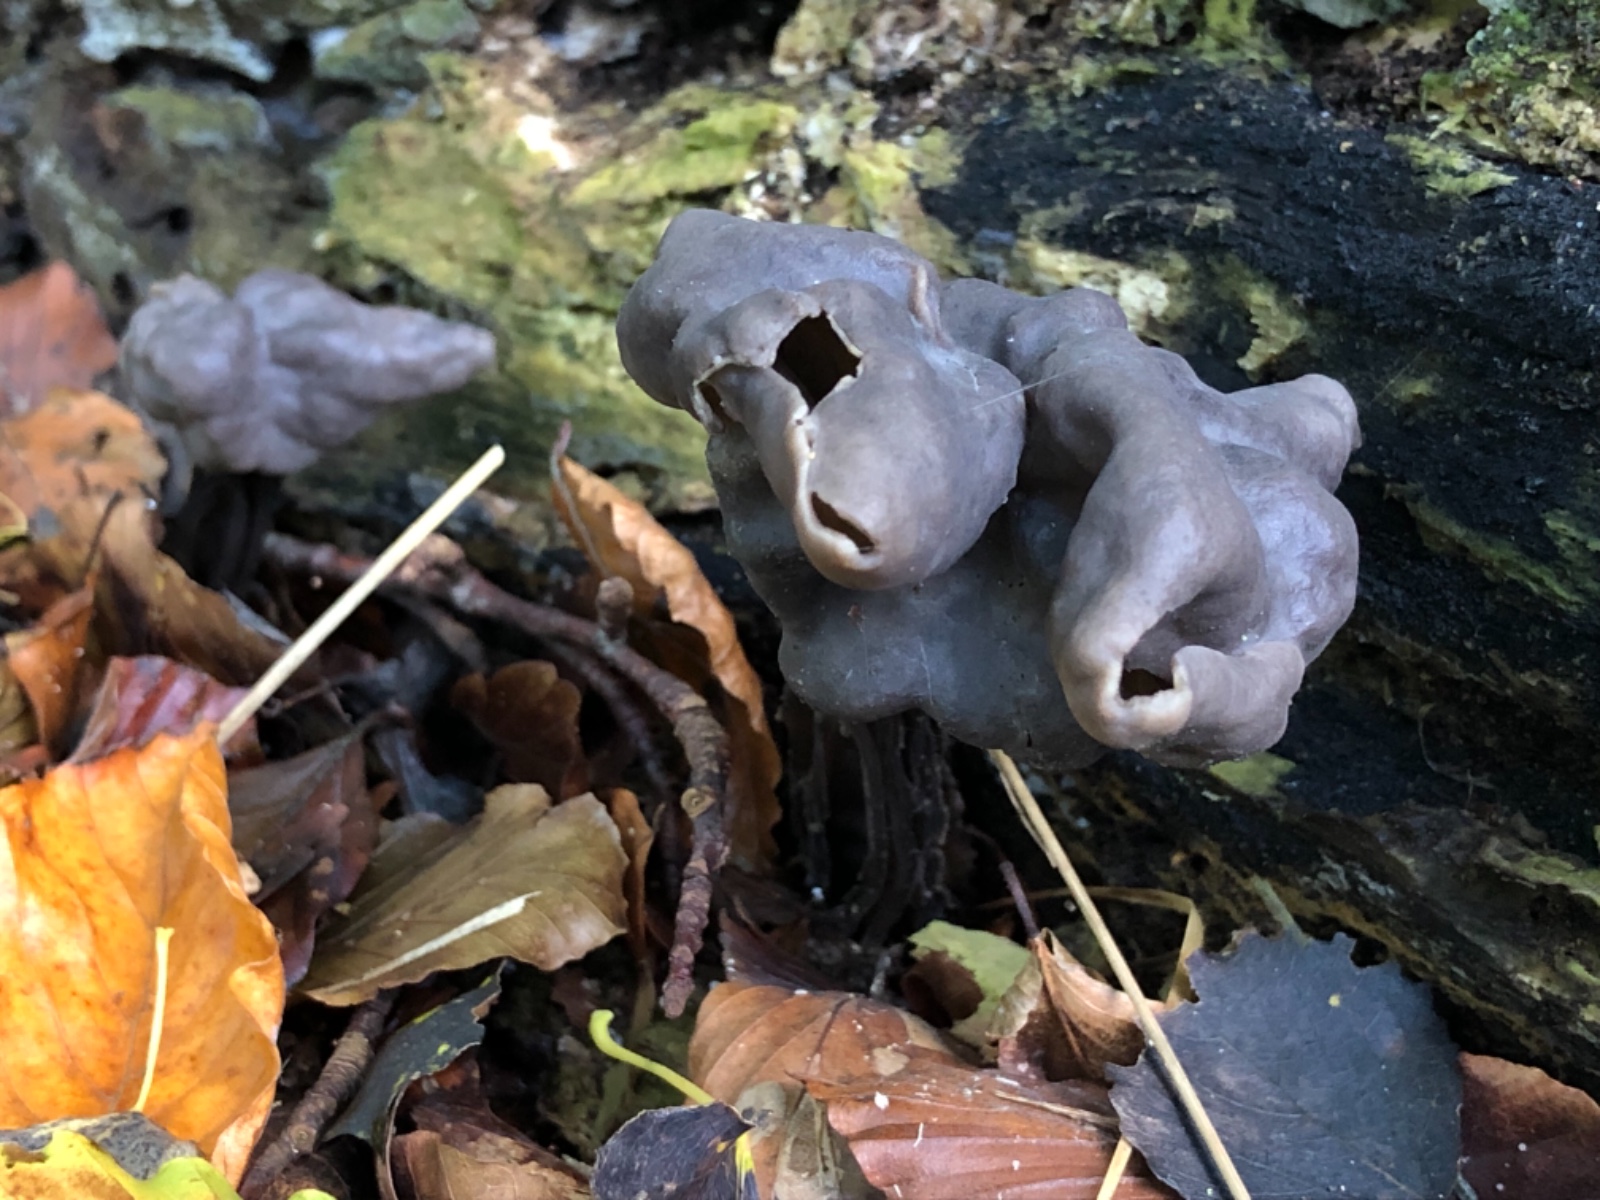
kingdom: Fungi
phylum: Ascomycota
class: Pezizomycetes
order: Pezizales
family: Helvellaceae
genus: Helvella
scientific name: Helvella lacunosa
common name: grubet foldhat
